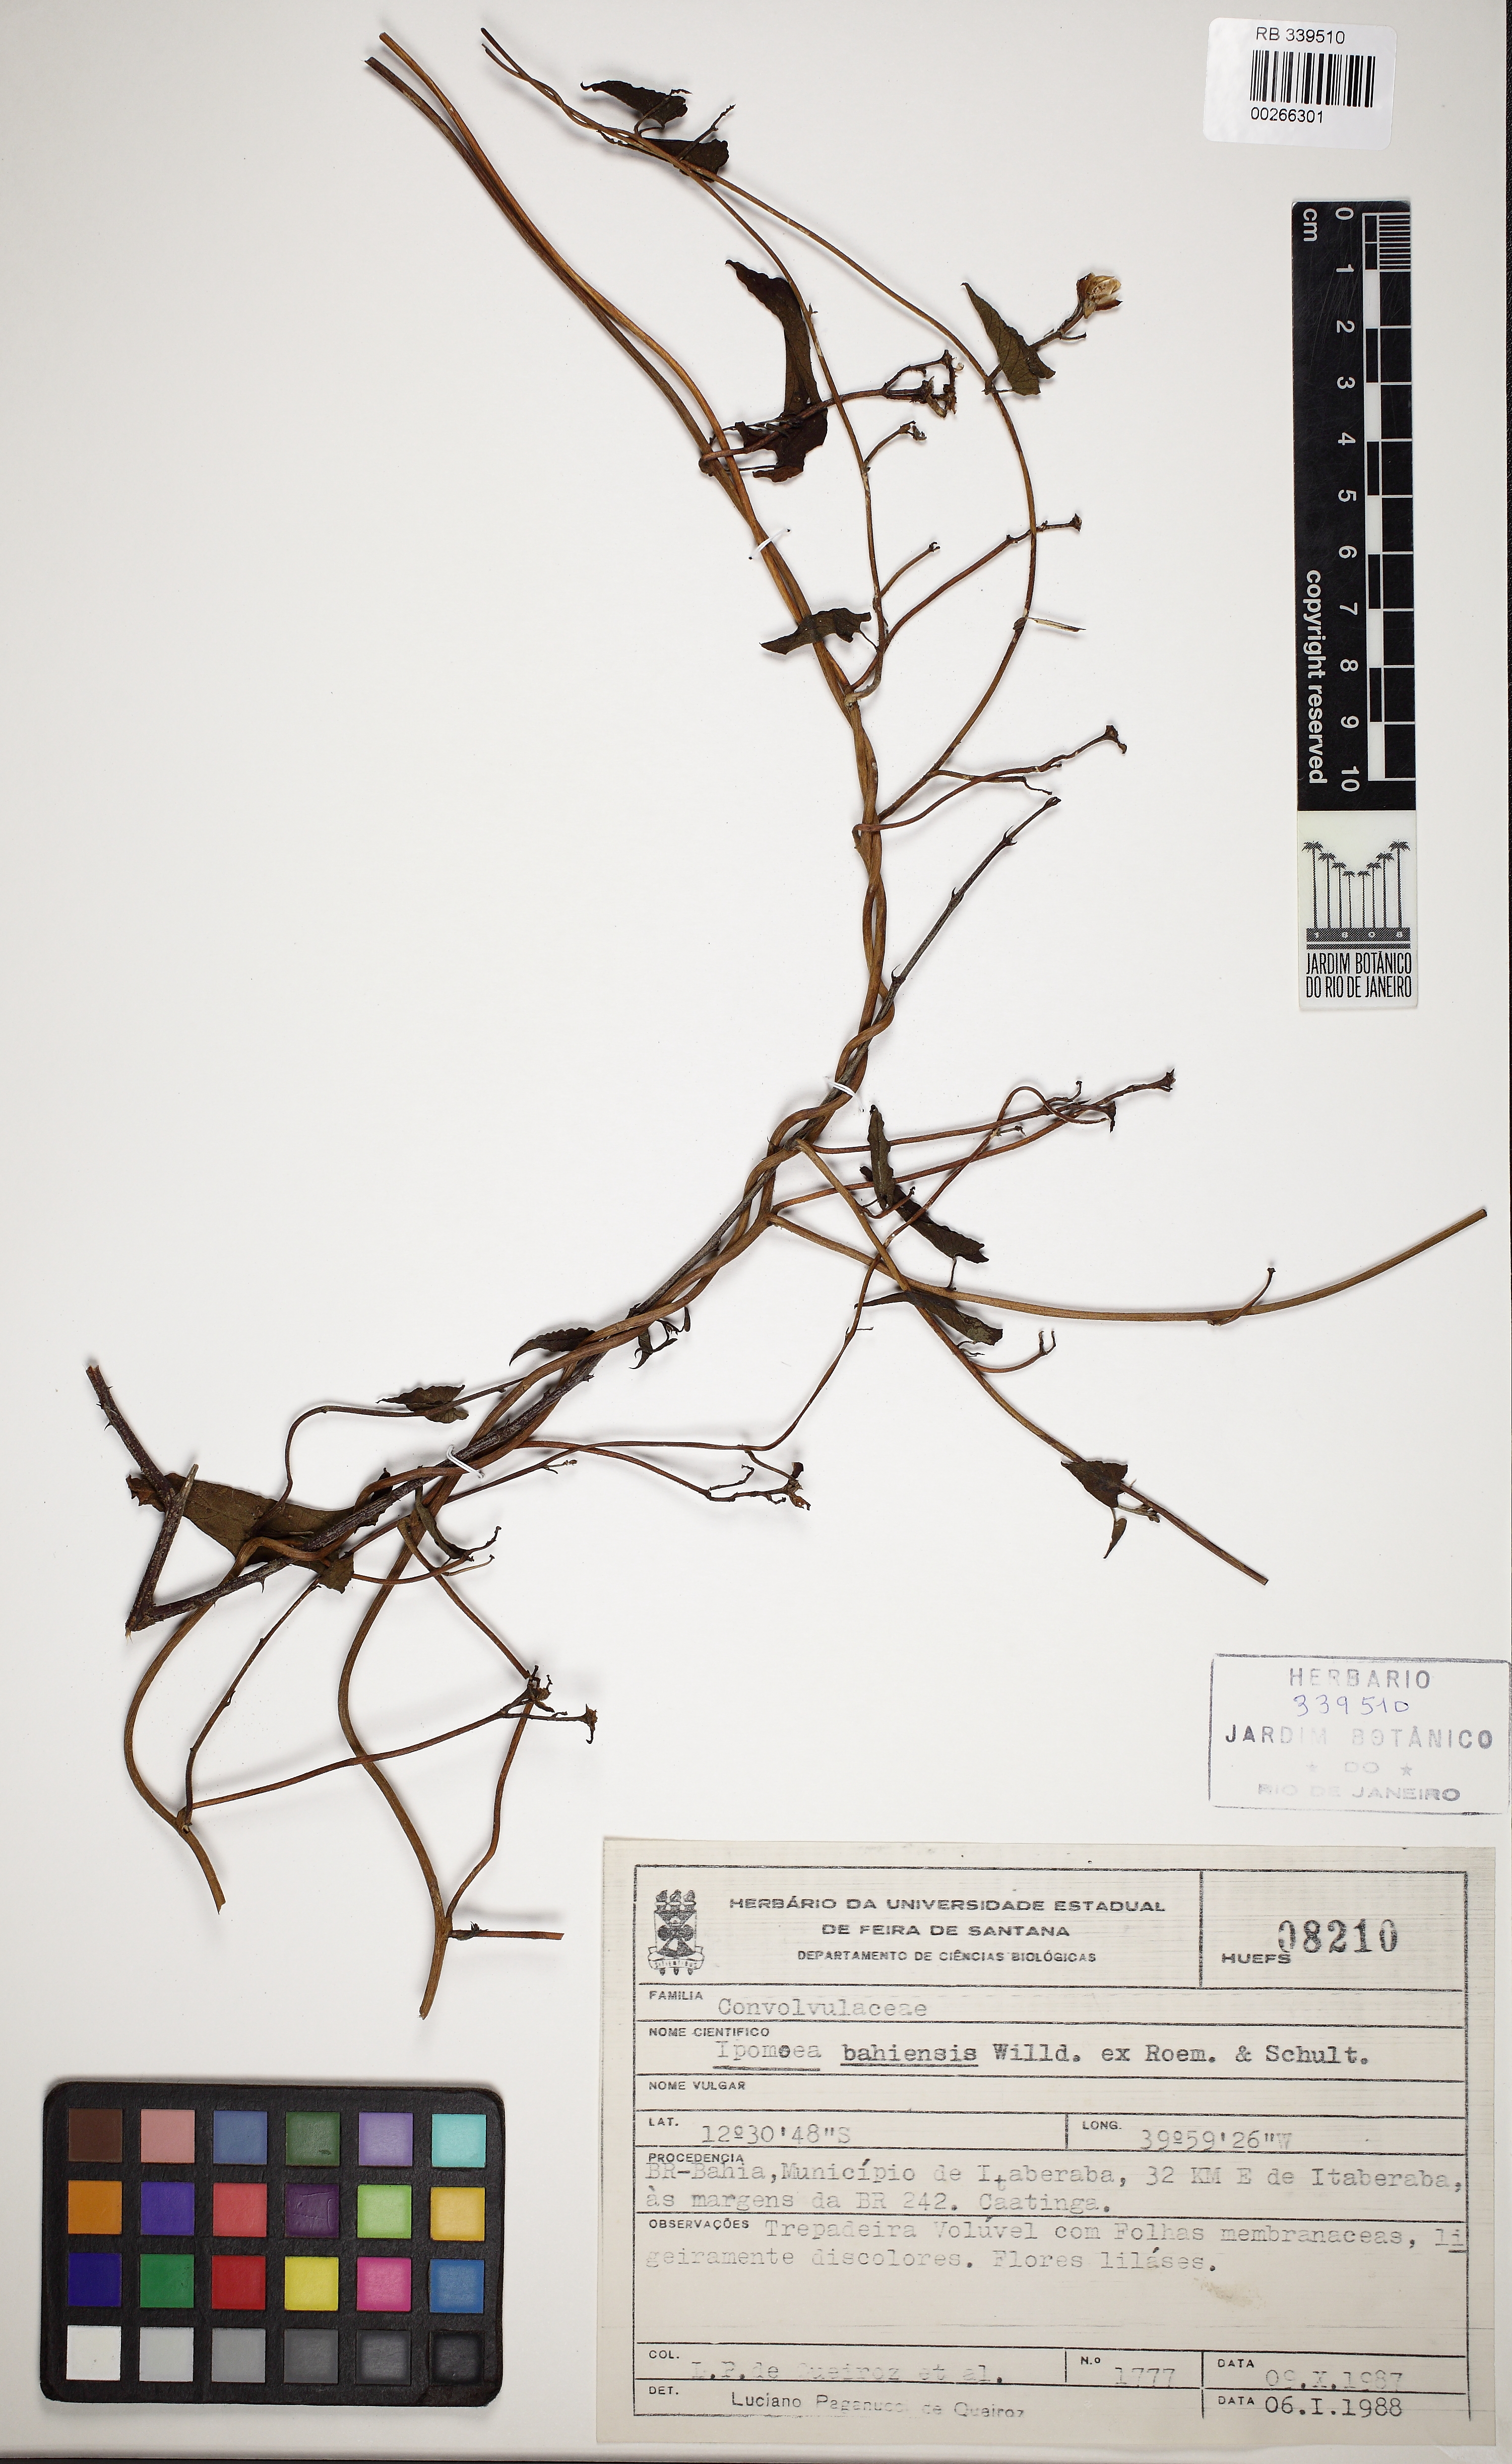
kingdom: Plantae
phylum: Tracheophyta
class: Magnoliopsida
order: Solanales
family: Convolvulaceae
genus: Ipomoea
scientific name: Ipomoea bahiensis
